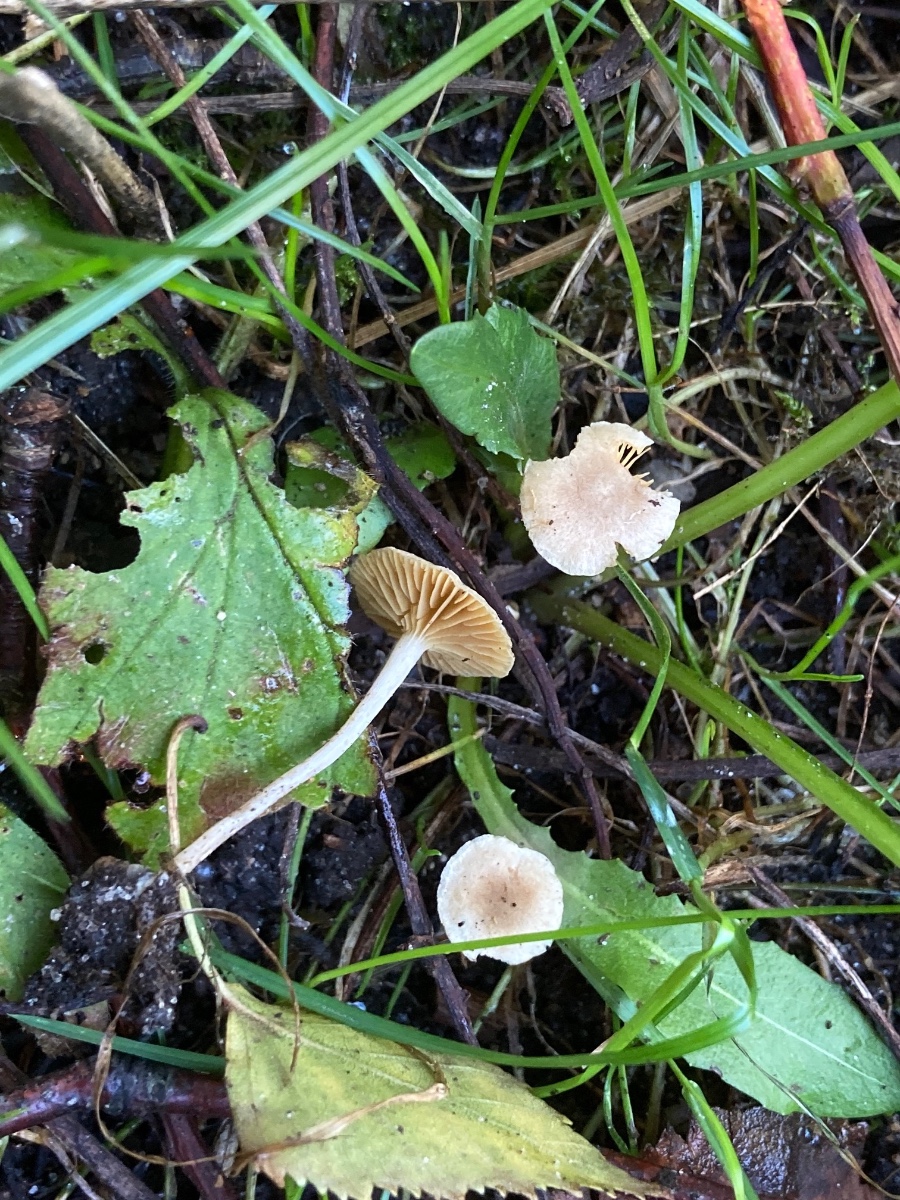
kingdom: Fungi
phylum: Basidiomycota
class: Agaricomycetes
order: Agaricales
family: Tubariaceae
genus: Tubaria
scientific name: Tubaria dispersa
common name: tjørne-fnughat
